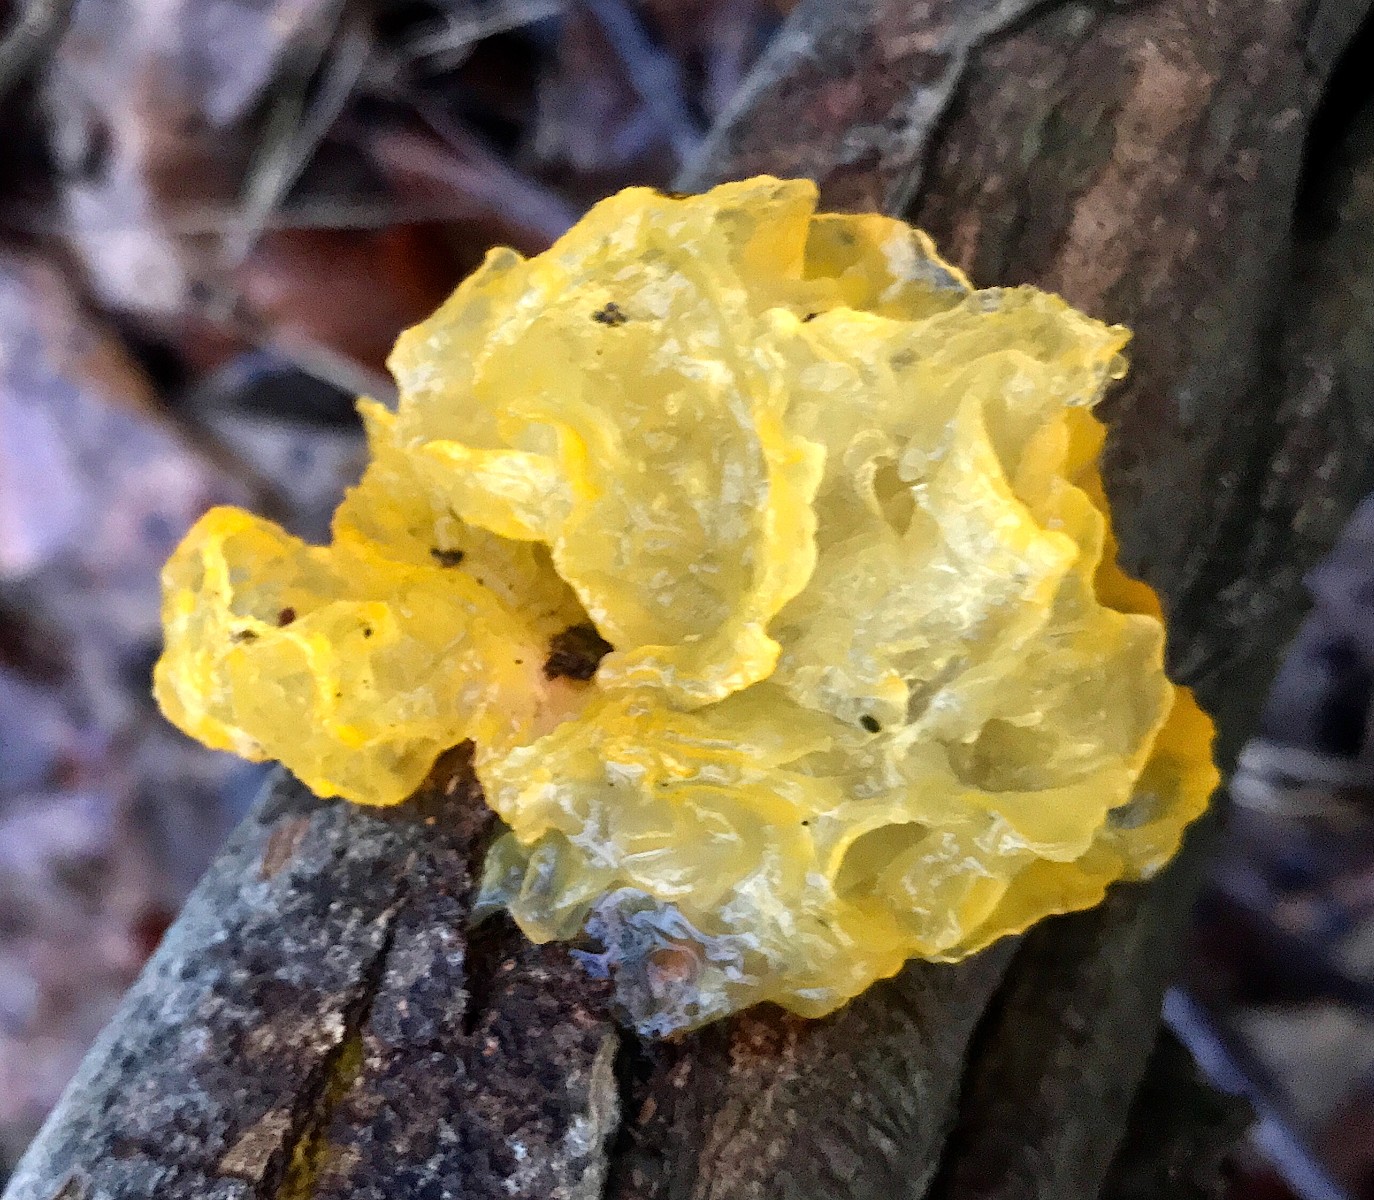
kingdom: Fungi
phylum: Basidiomycota
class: Tremellomycetes
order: Tremellales
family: Tremellaceae
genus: Tremella
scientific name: Tremella mesenterica
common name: gul bævresvamp
